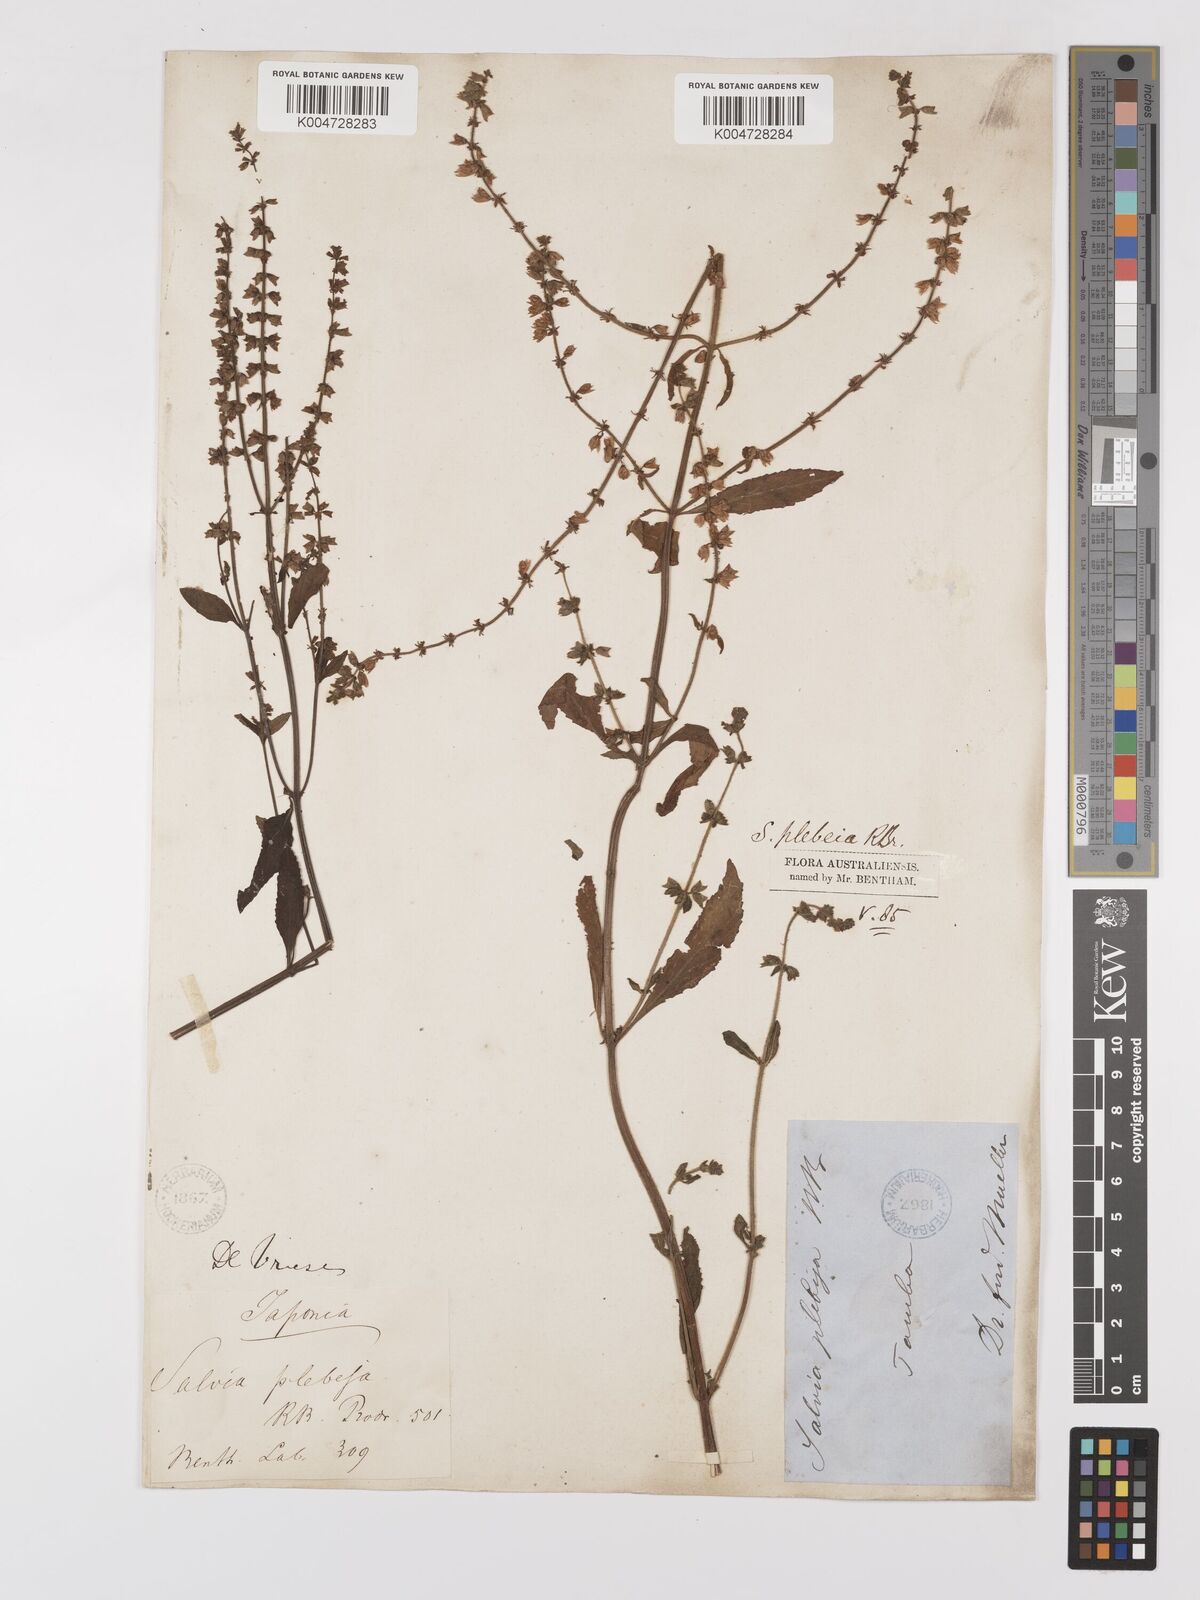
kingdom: Plantae
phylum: Tracheophyta
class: Magnoliopsida
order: Lamiales
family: Lamiaceae
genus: Salvia
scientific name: Salvia plebeia
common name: Australian sage
